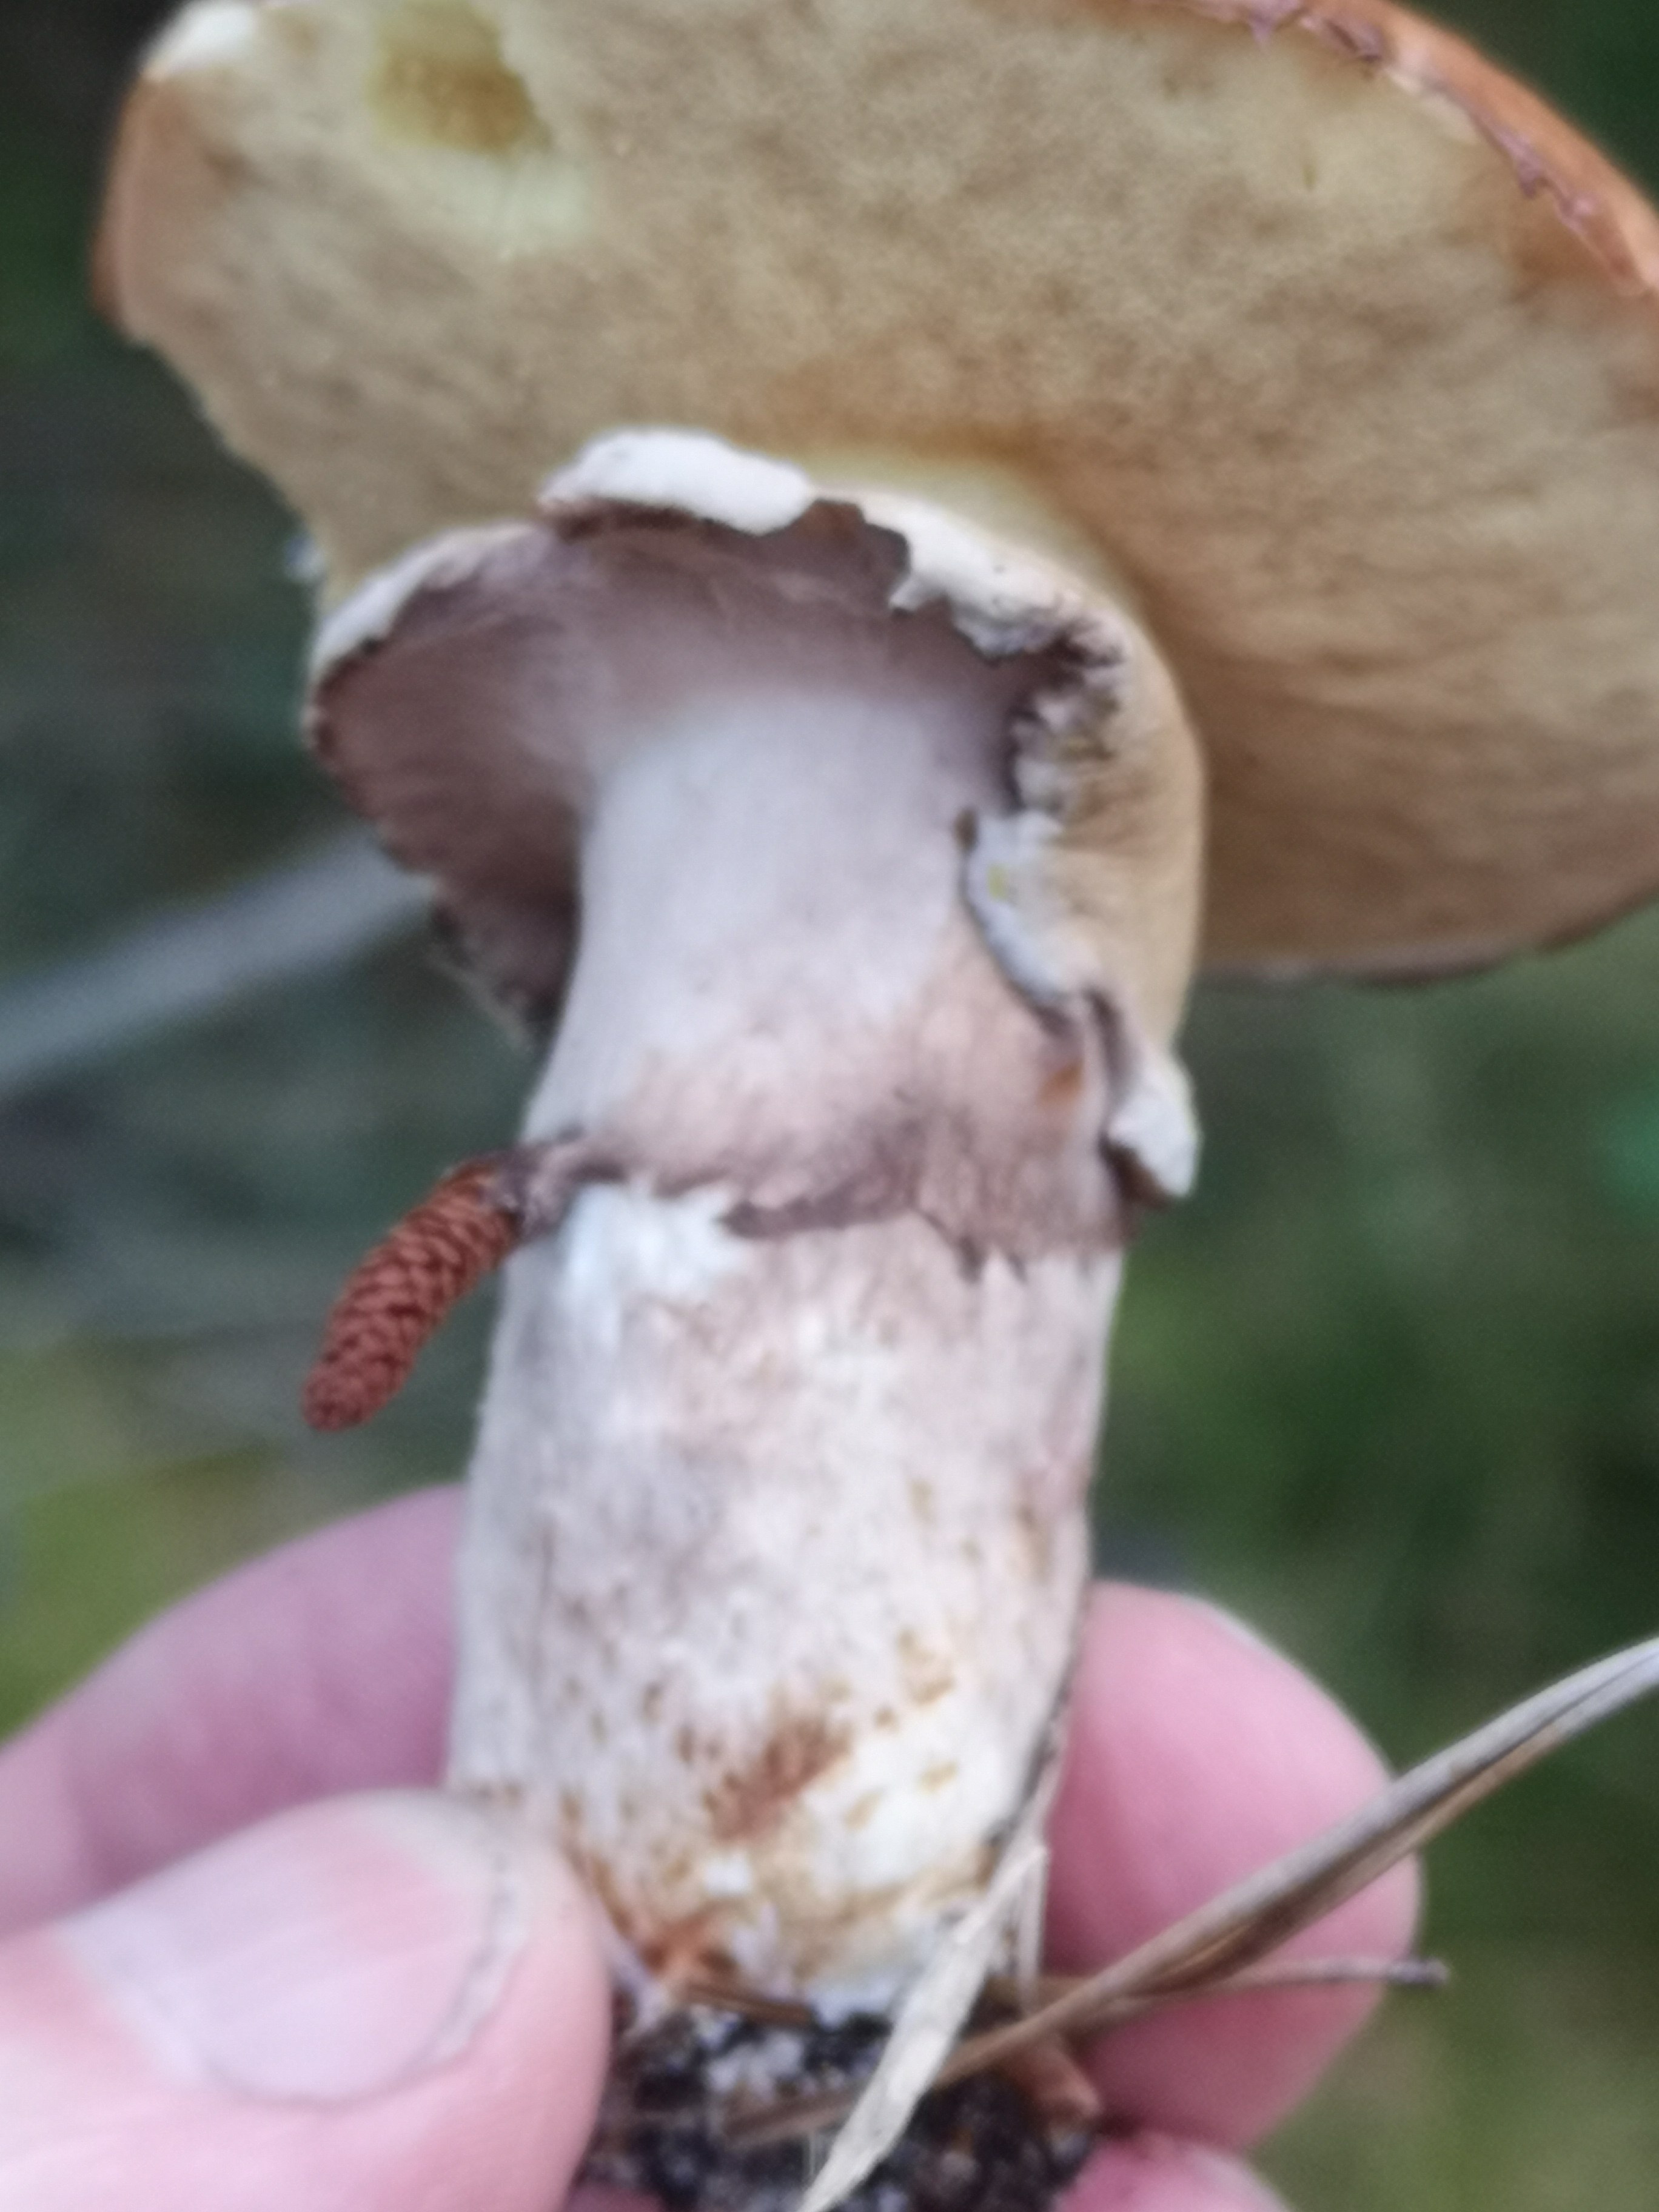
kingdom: Fungi
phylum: Basidiomycota
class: Agaricomycetes
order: Boletales
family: Suillaceae
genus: Suillus
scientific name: Suillus luteus
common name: brungul slimrørhat
